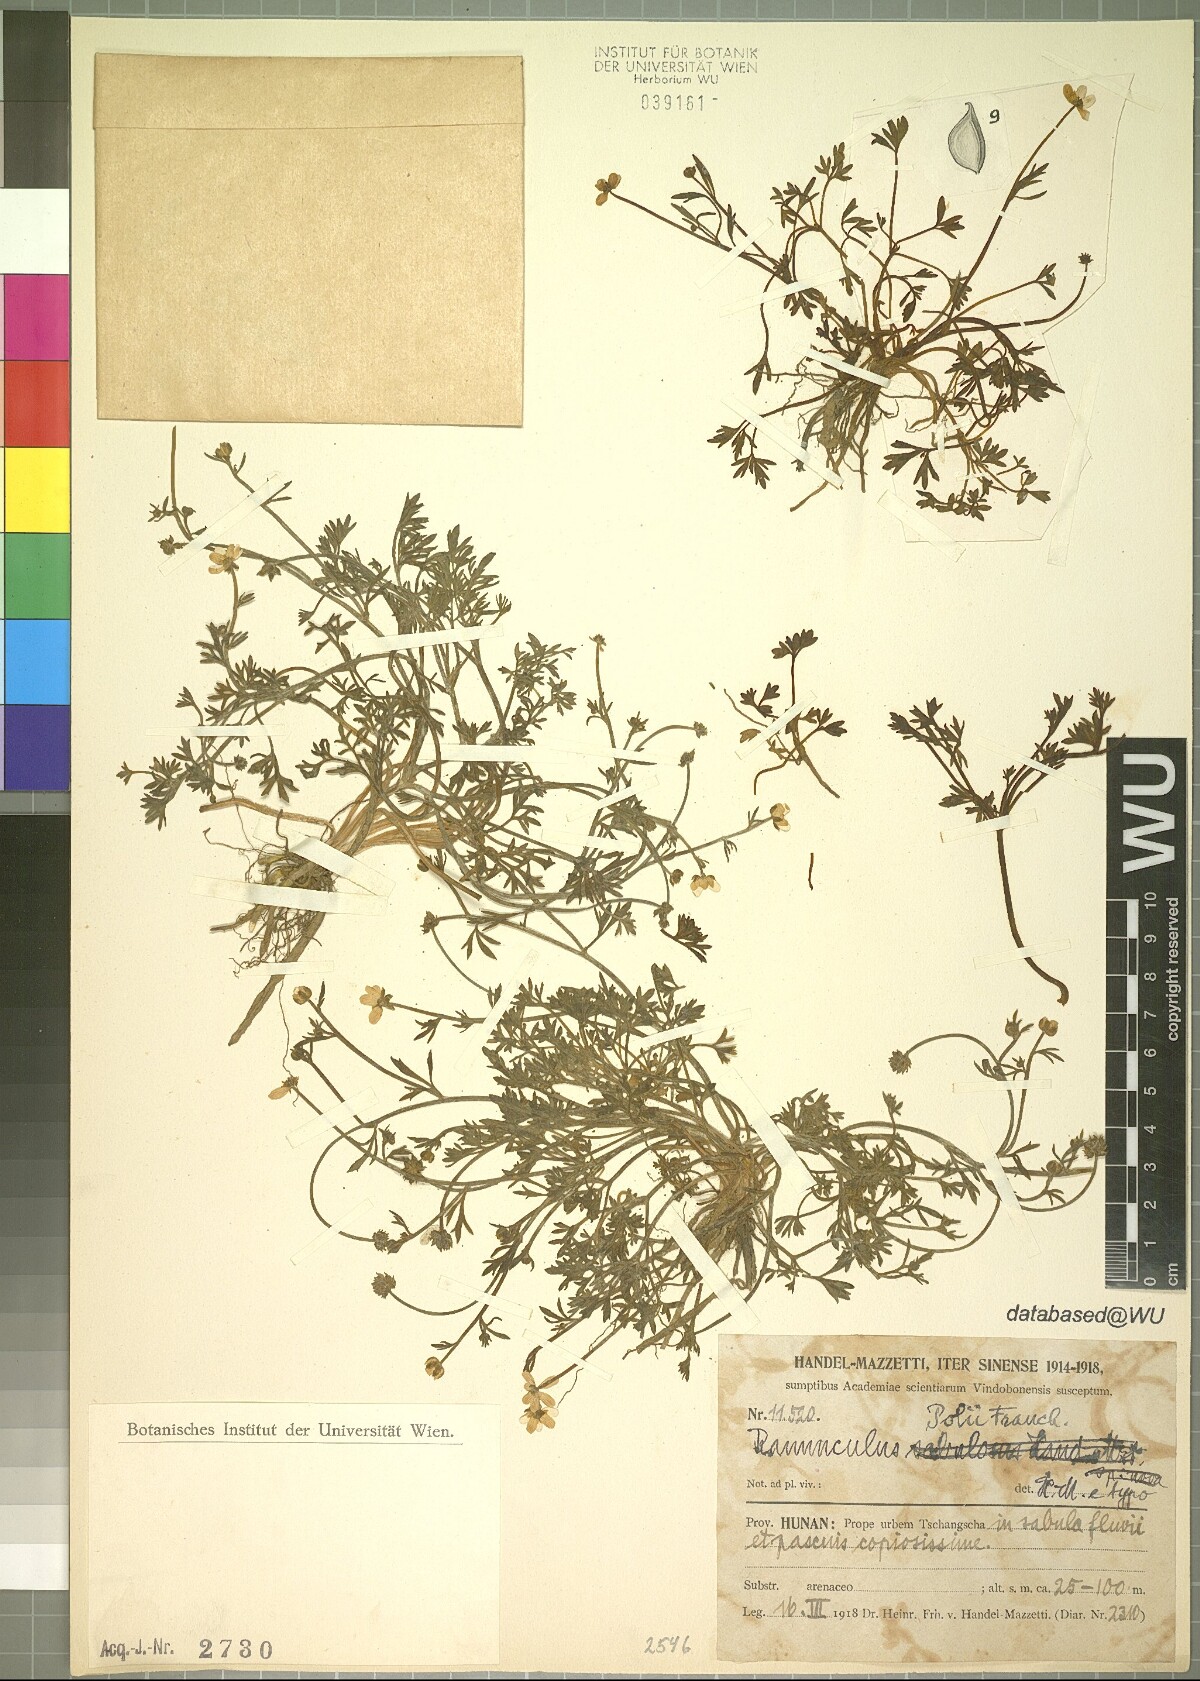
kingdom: Plantae
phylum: Tracheophyta
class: Magnoliopsida
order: Ranunculales
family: Ranunculaceae
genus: Ranunculus
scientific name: Ranunculus polii
